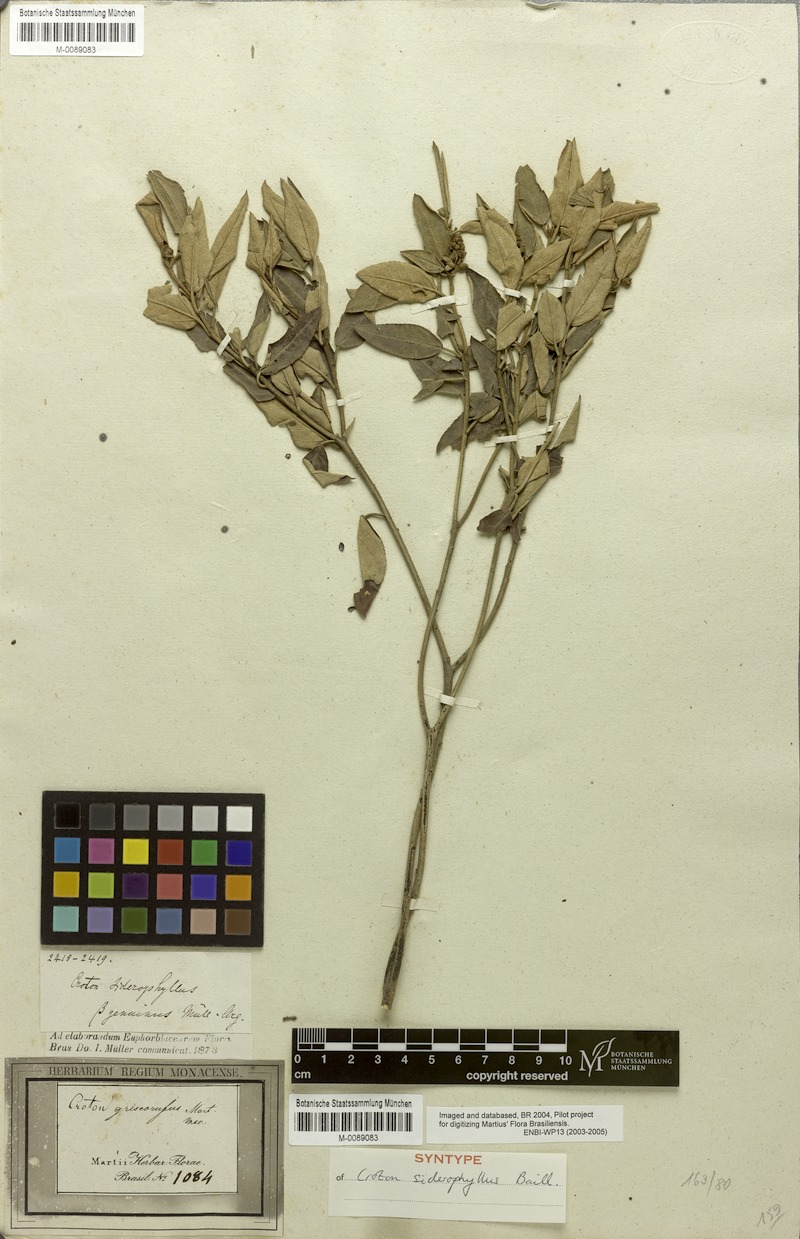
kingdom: Plantae
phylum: Tracheophyta
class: Magnoliopsida
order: Malpighiales
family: Euphorbiaceae
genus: Croton
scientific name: Croton siderophyllus
